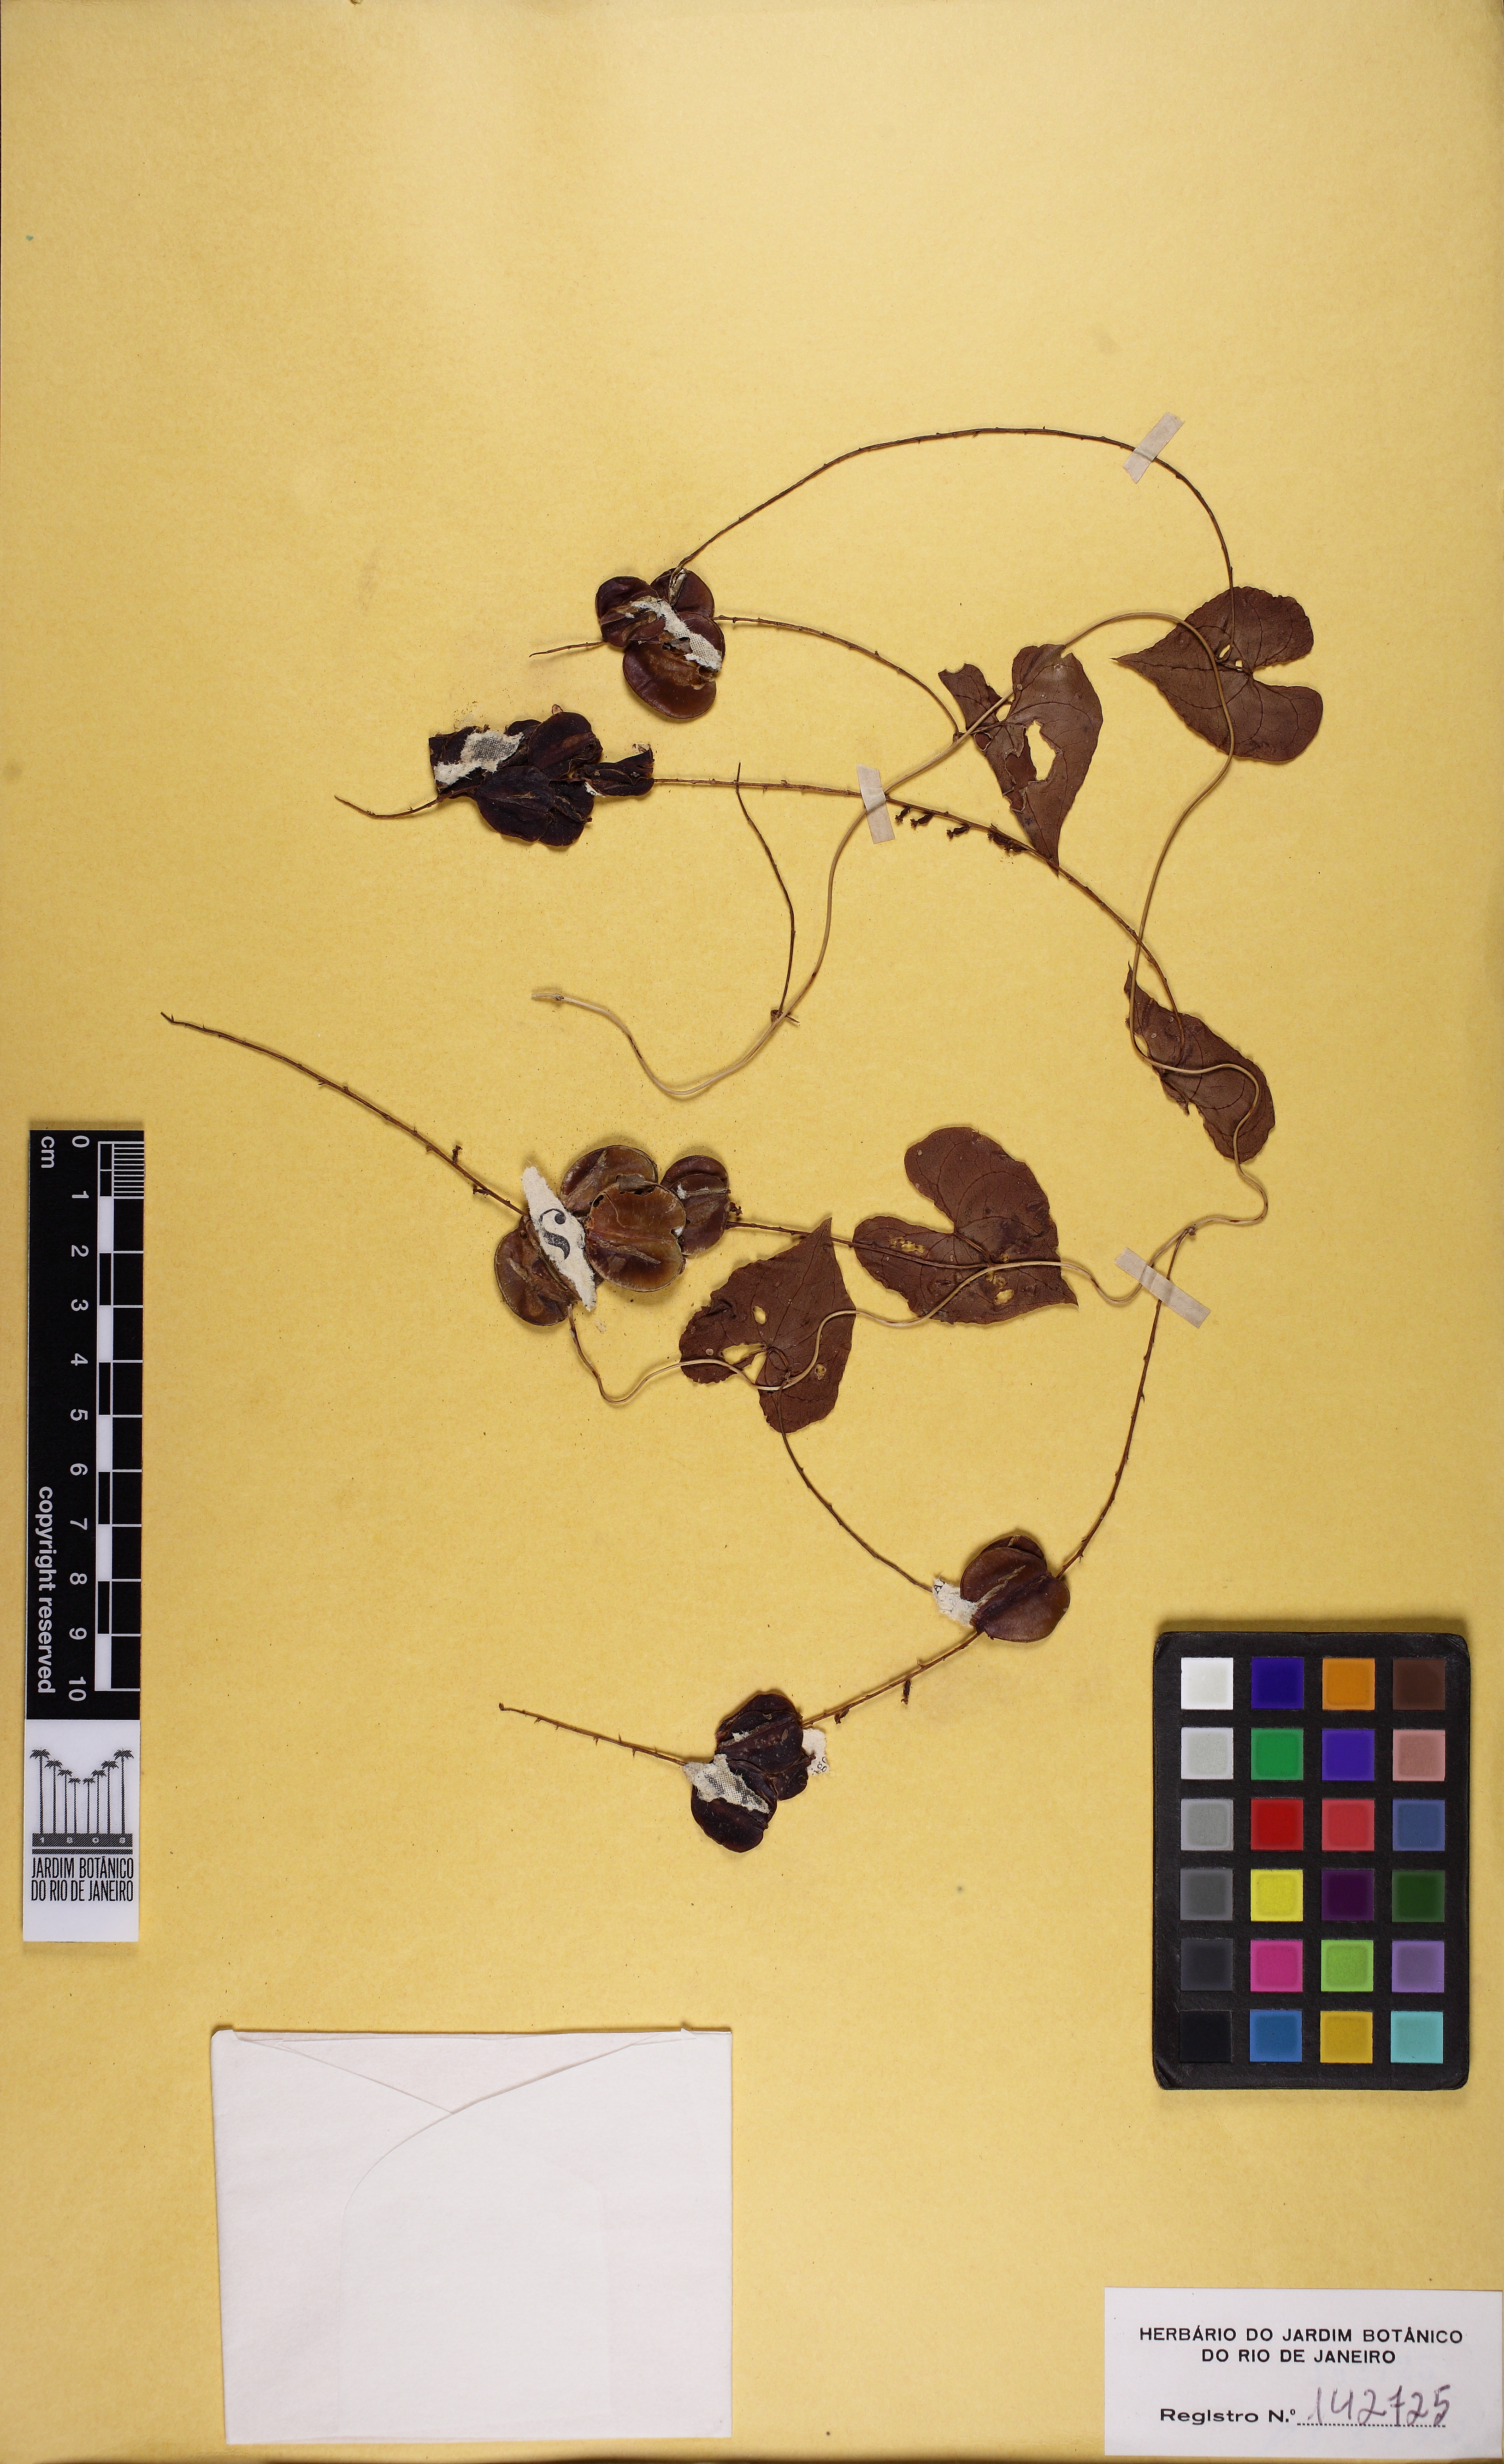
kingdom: Plantae
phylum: Tracheophyta
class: Liliopsida
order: Dioscoreales
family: Dioscoreaceae
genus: Dioscorea
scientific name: Dioscorea polygonoides
